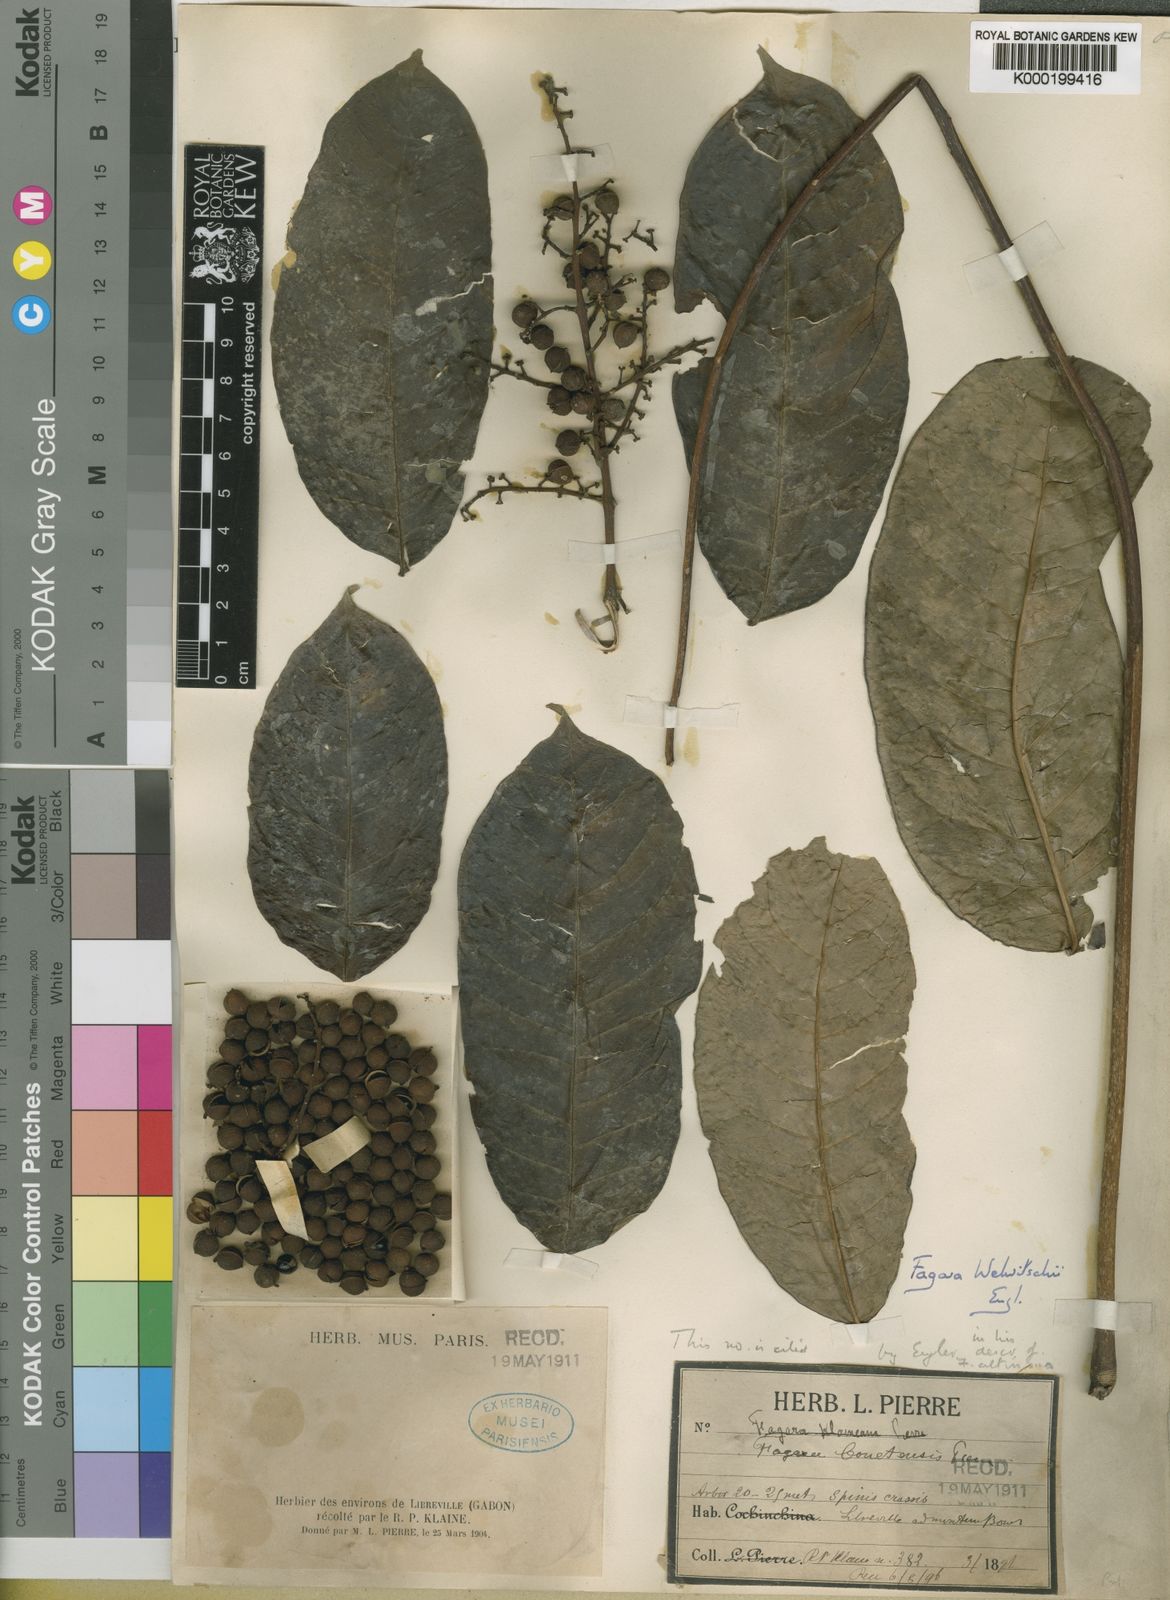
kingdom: Plantae
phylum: Tracheophyta
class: Magnoliopsida
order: Sapindales
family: Rutaceae
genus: Vepris
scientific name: Vepris grandifolia
